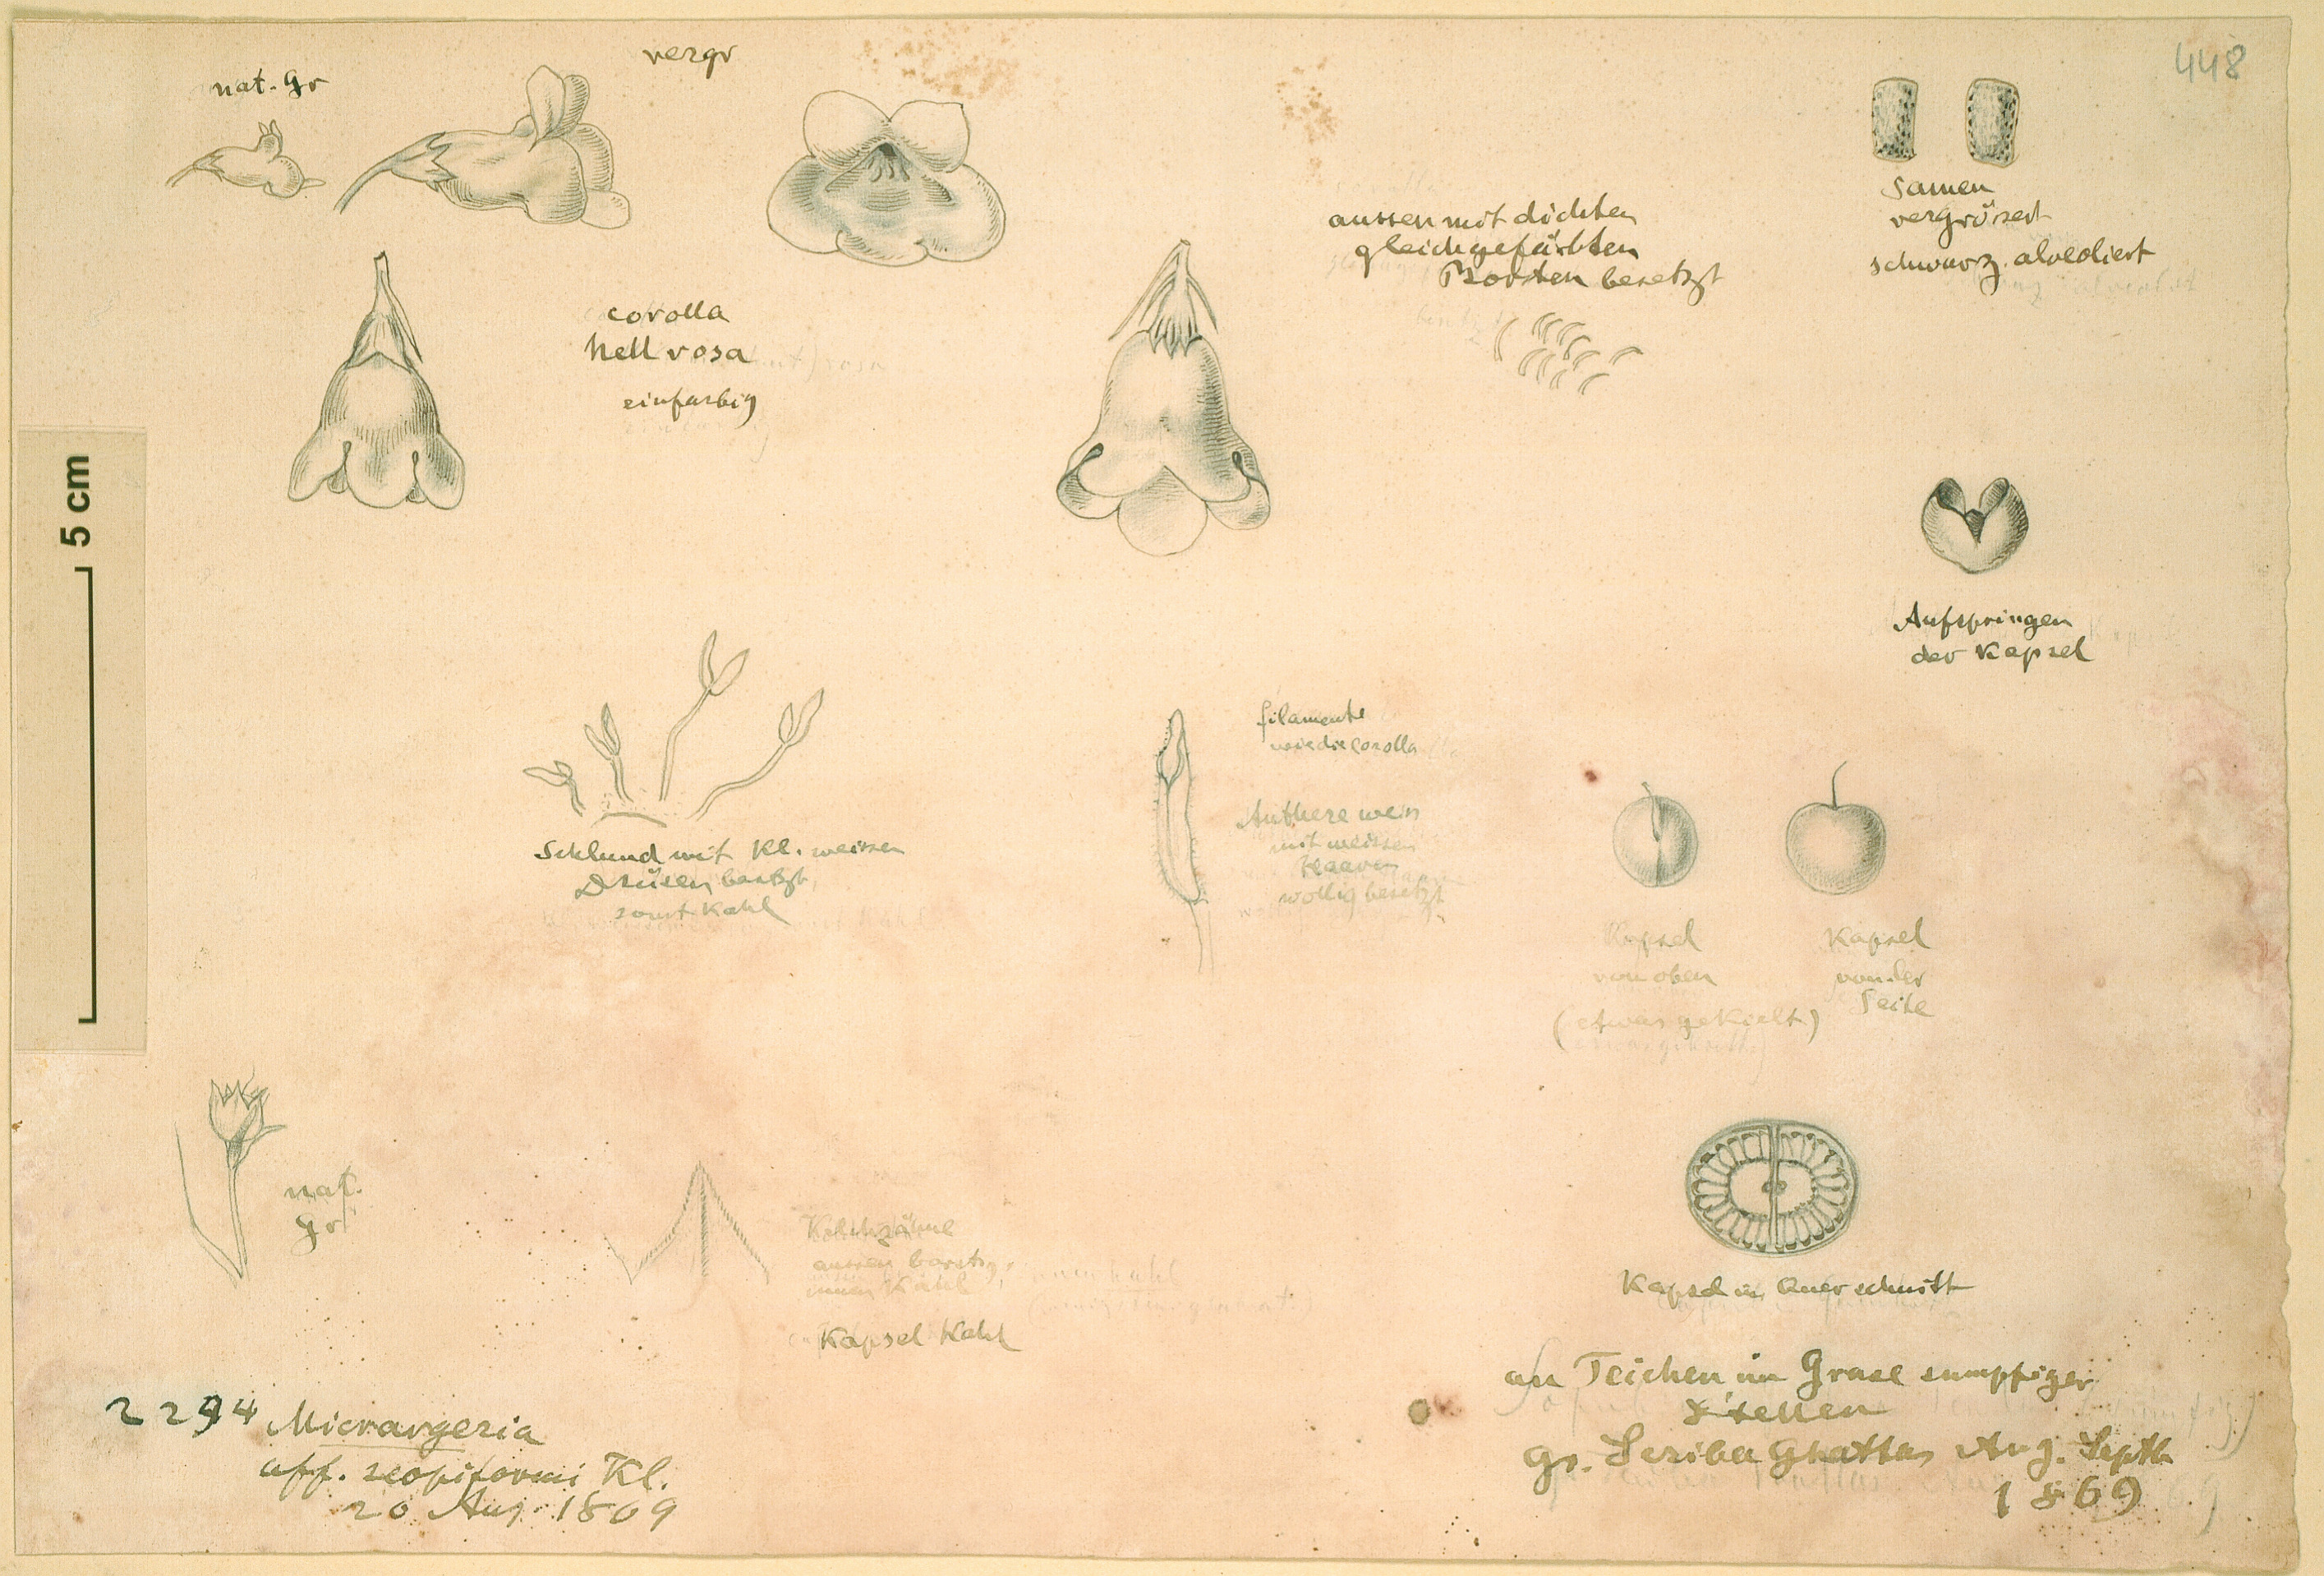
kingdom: Plantae
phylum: Tracheophyta
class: Magnoliopsida
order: Lamiales
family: Orobanchaceae
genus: Micrargeria
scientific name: Micrargeria filiformis
